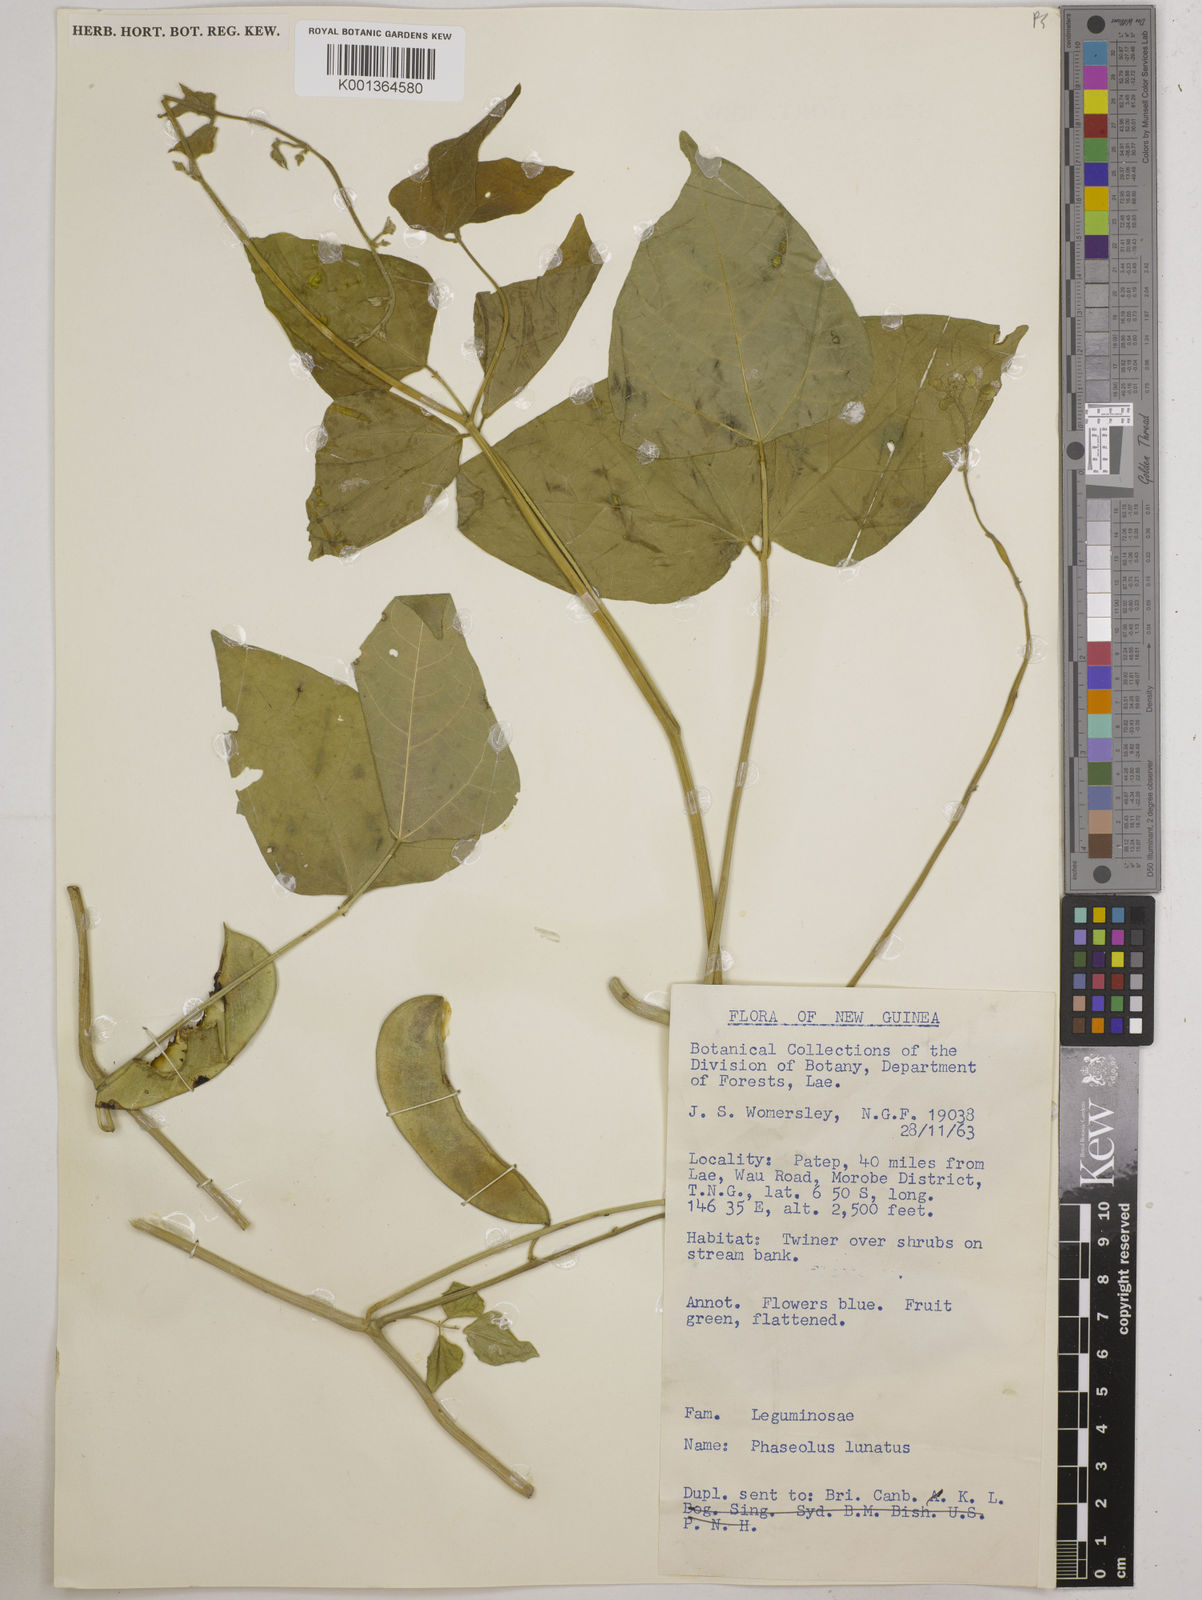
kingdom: Plantae
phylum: Tracheophyta
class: Magnoliopsida
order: Fabales
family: Fabaceae
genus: Phaseolus
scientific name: Phaseolus lunatus
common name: Sieva bean
